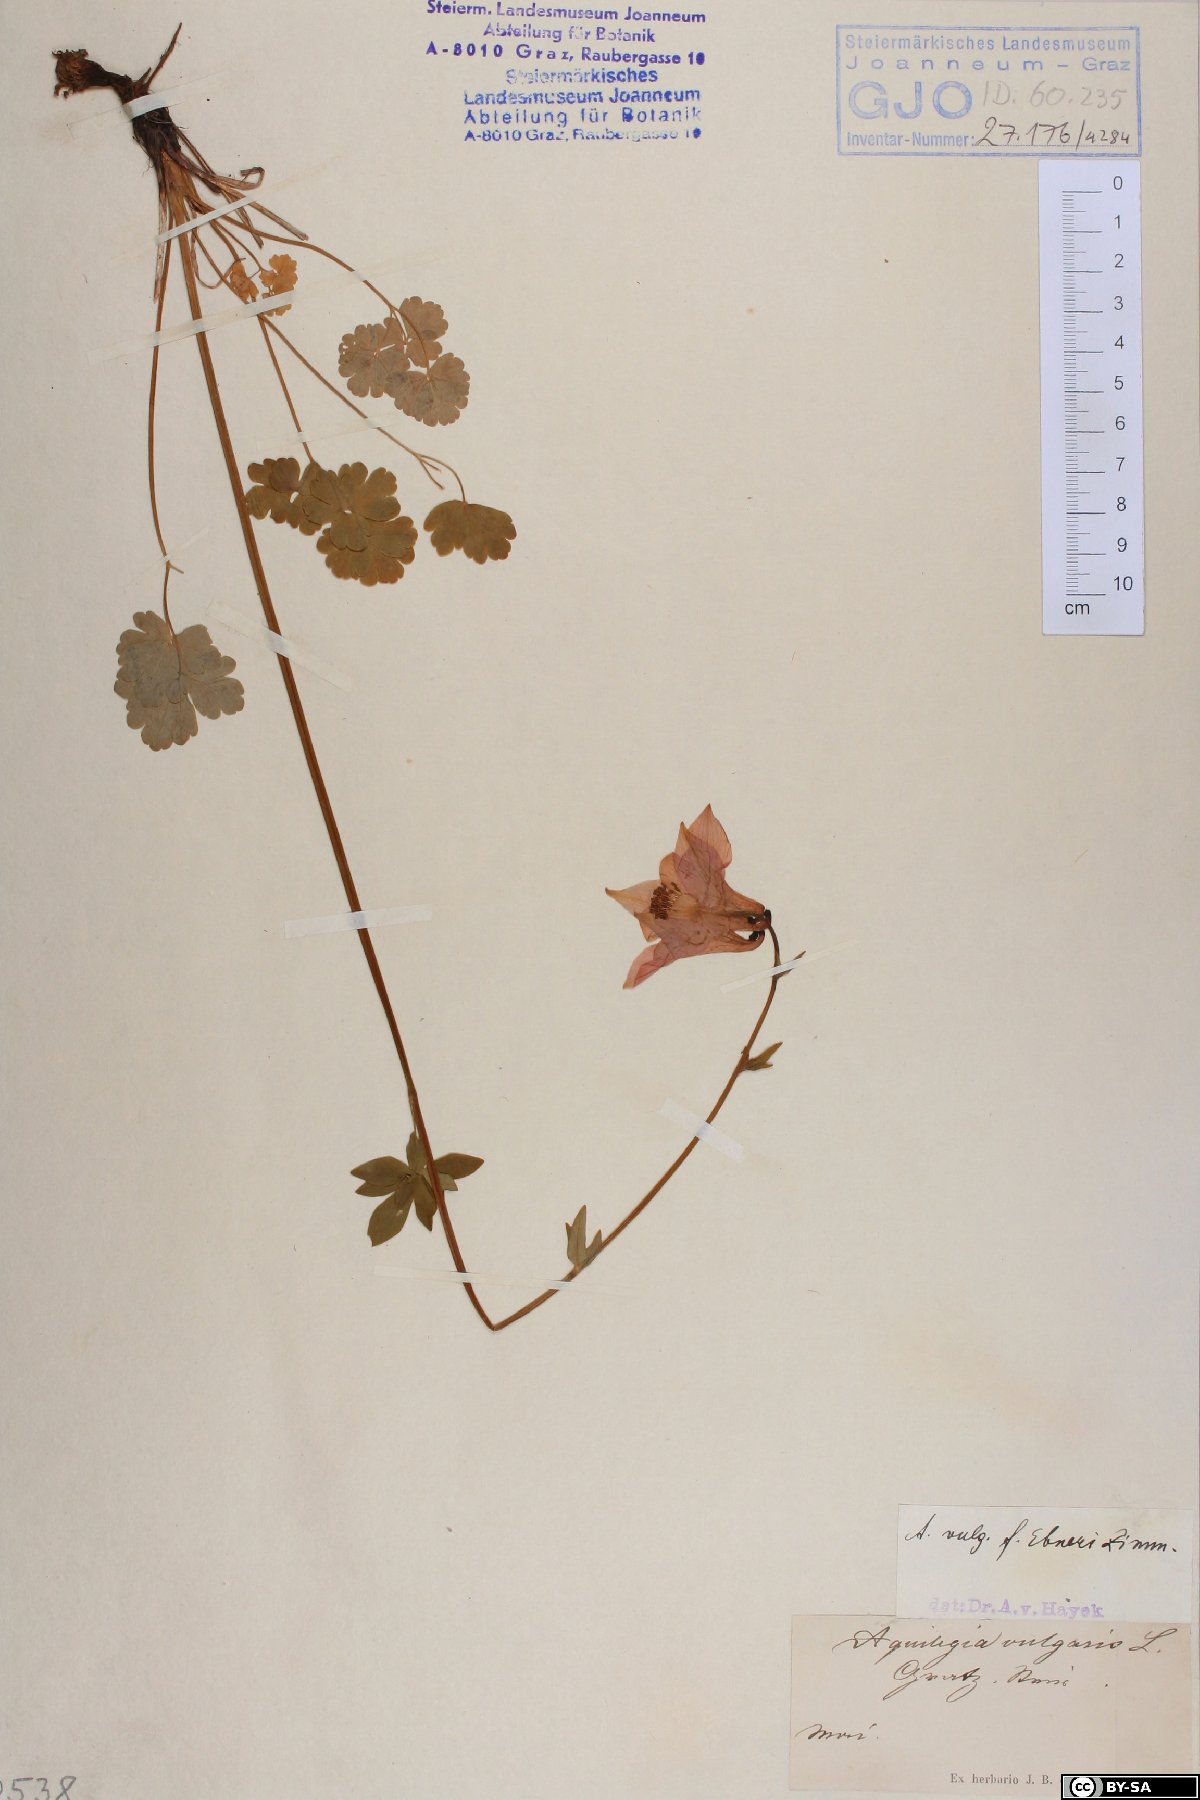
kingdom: Plantae
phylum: Tracheophyta
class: Magnoliopsida
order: Ranunculales
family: Ranunculaceae
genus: Aquilegia
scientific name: Aquilegia vulgaris
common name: Columbine
